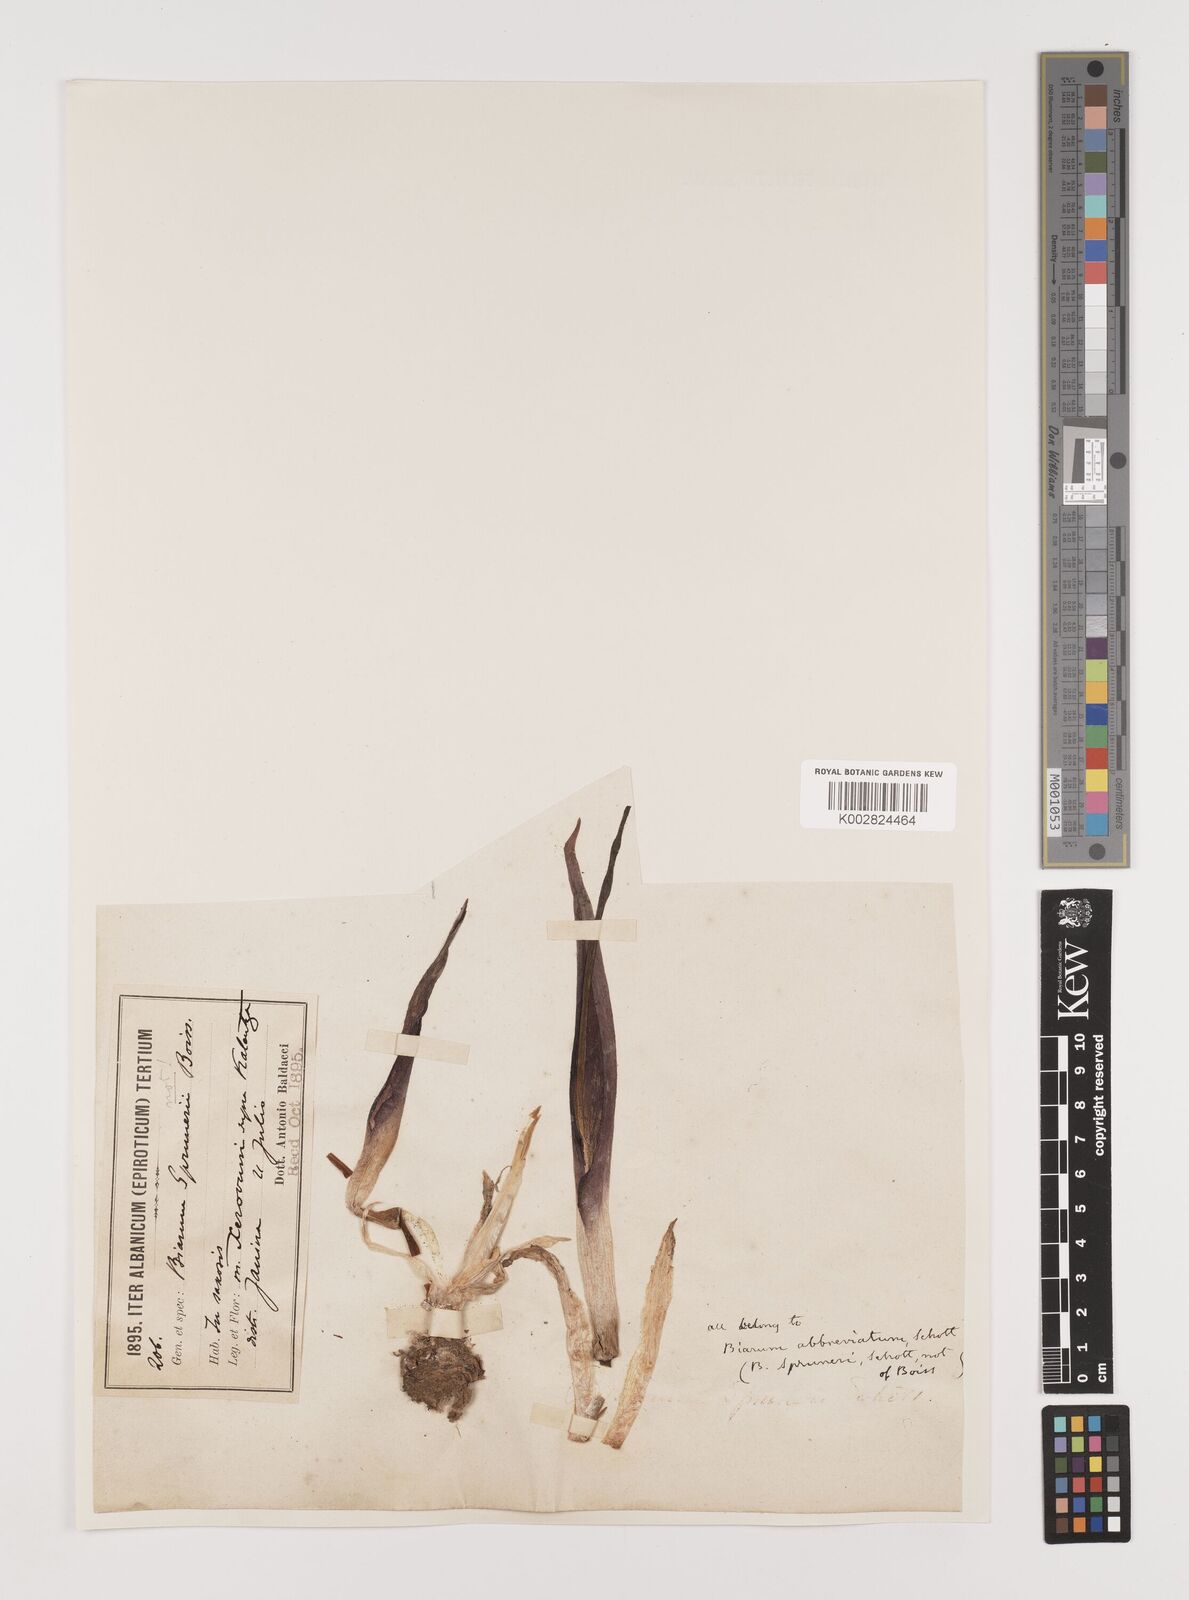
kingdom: Plantae
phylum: Tracheophyta
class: Liliopsida
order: Alismatales
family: Araceae
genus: Biarum
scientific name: Biarum tenuifolium
